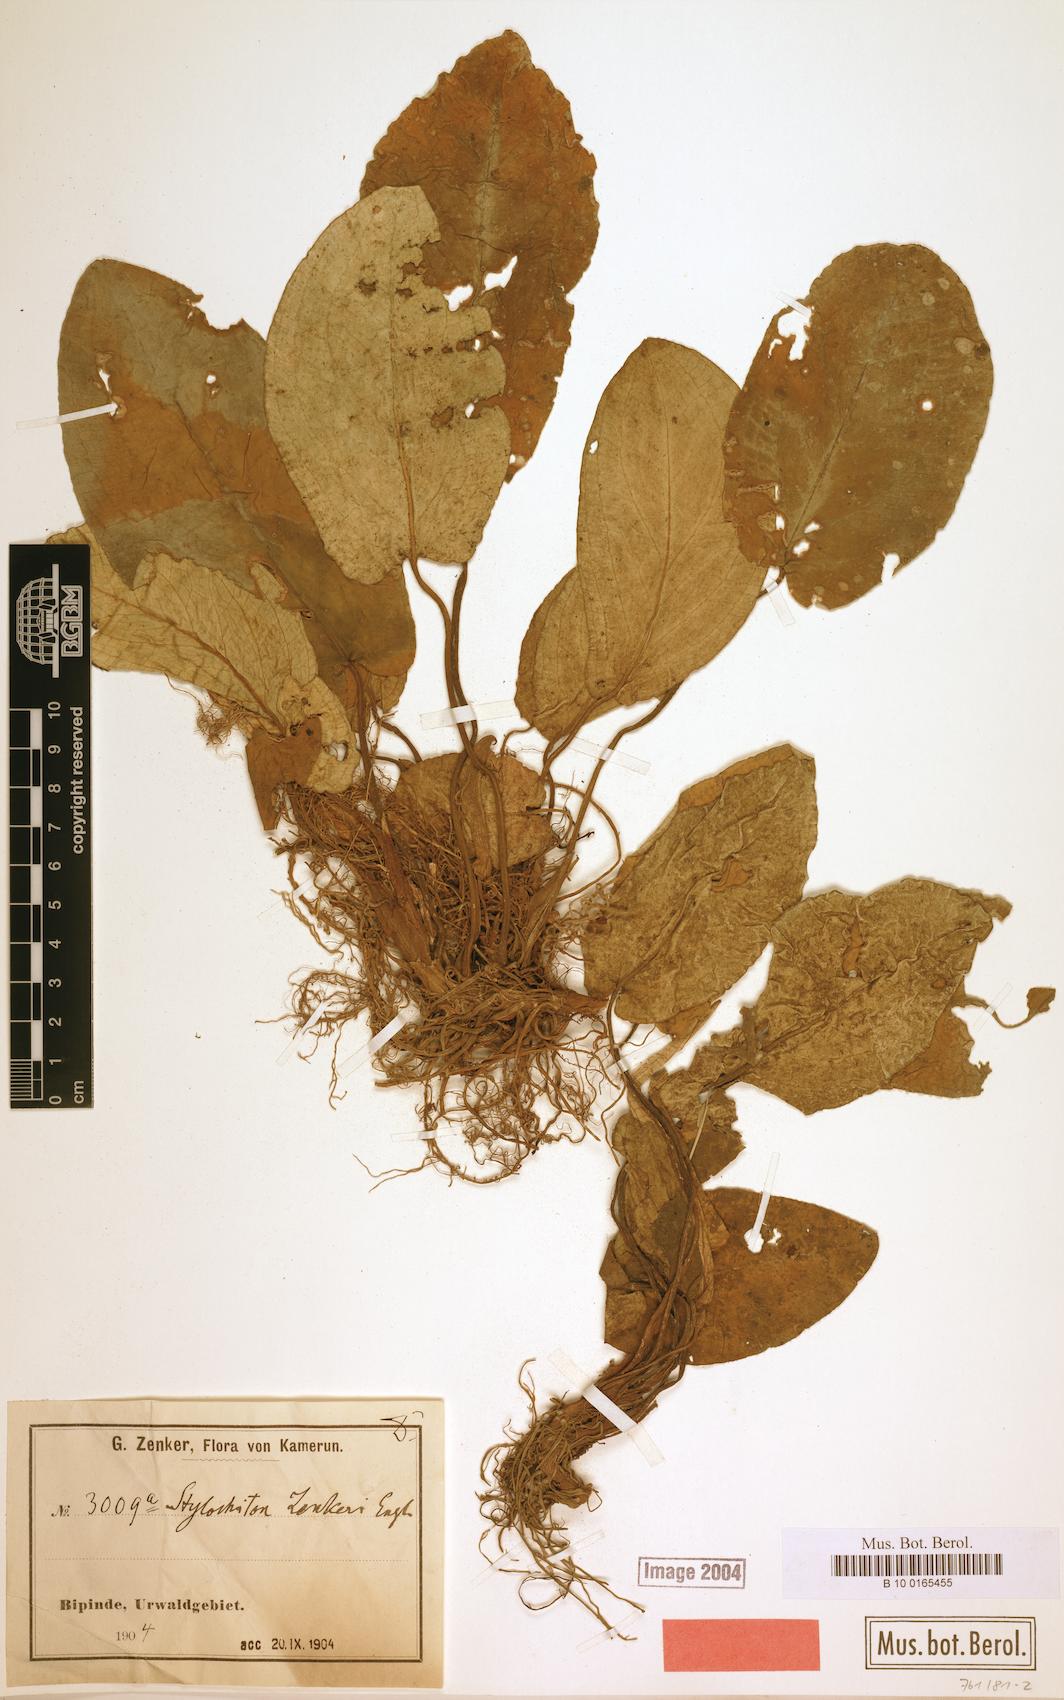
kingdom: Plantae
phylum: Tracheophyta
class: Liliopsida
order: Alismatales
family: Araceae
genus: Stylochaeton
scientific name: Stylochaeton zenkeri
